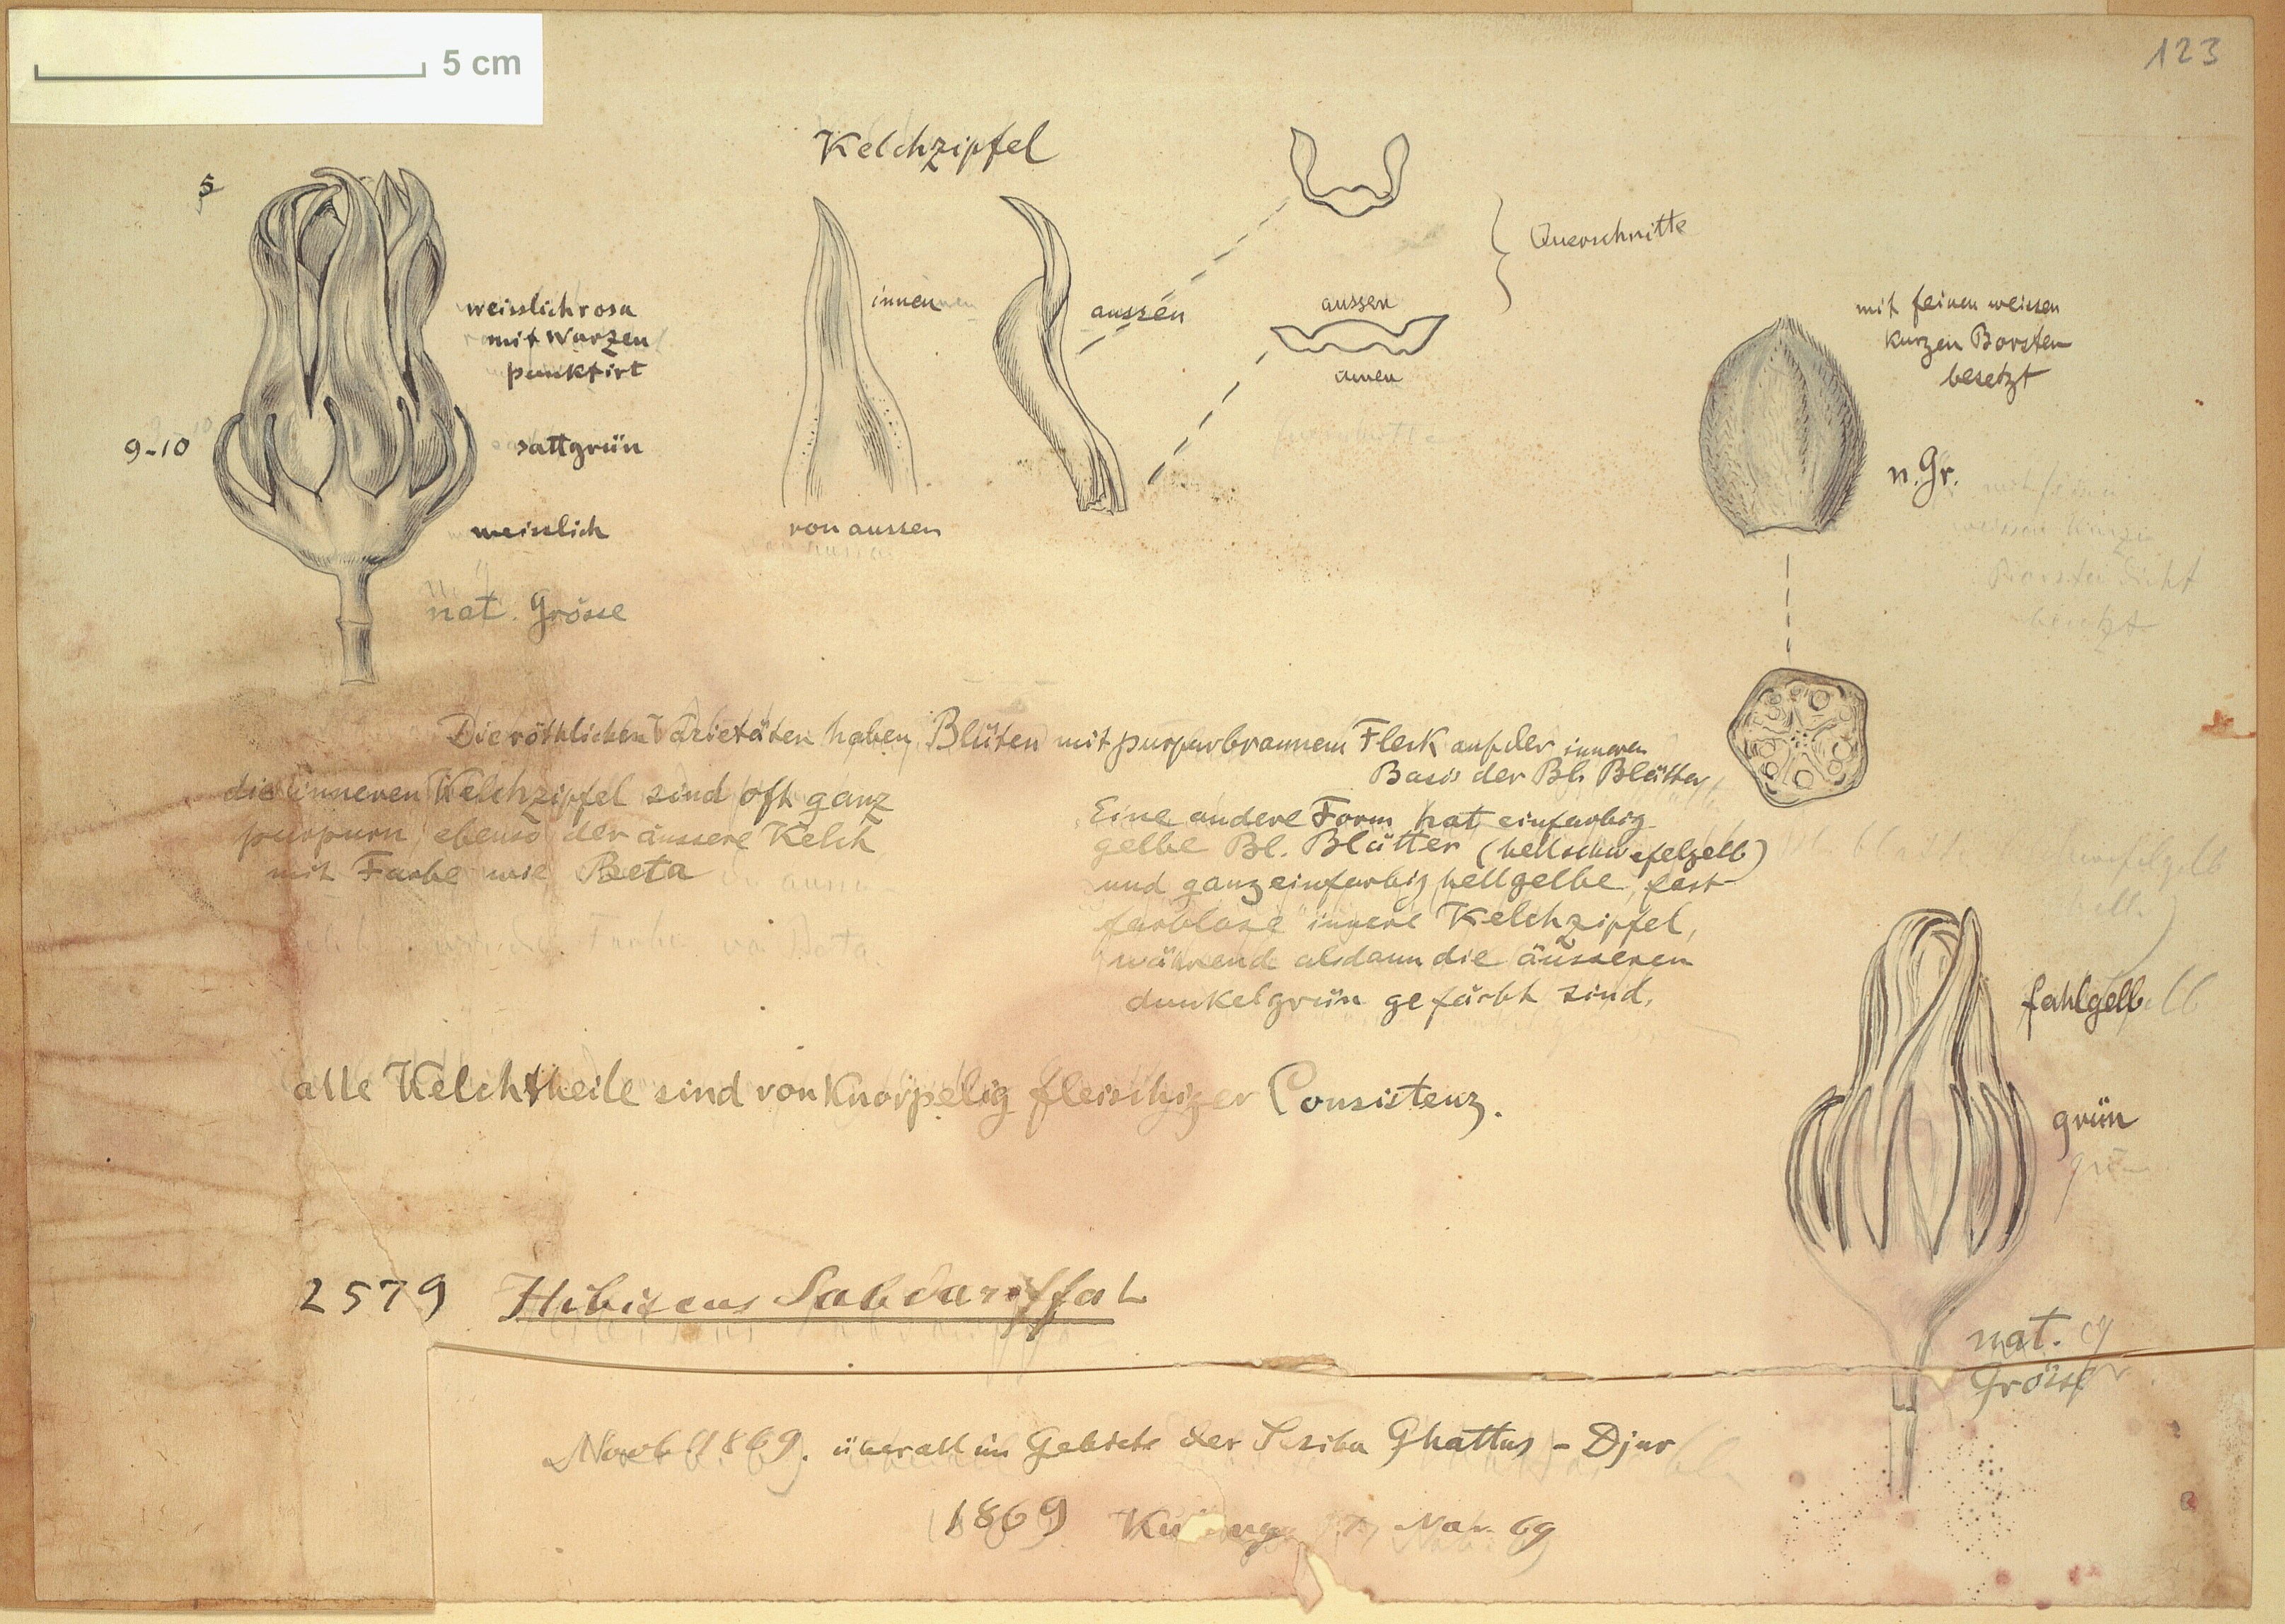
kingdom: Plantae
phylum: Tracheophyta
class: Magnoliopsida
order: Malvales
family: Malvaceae
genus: Hibiscus
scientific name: Hibiscus sabdariffa
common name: Roselle
